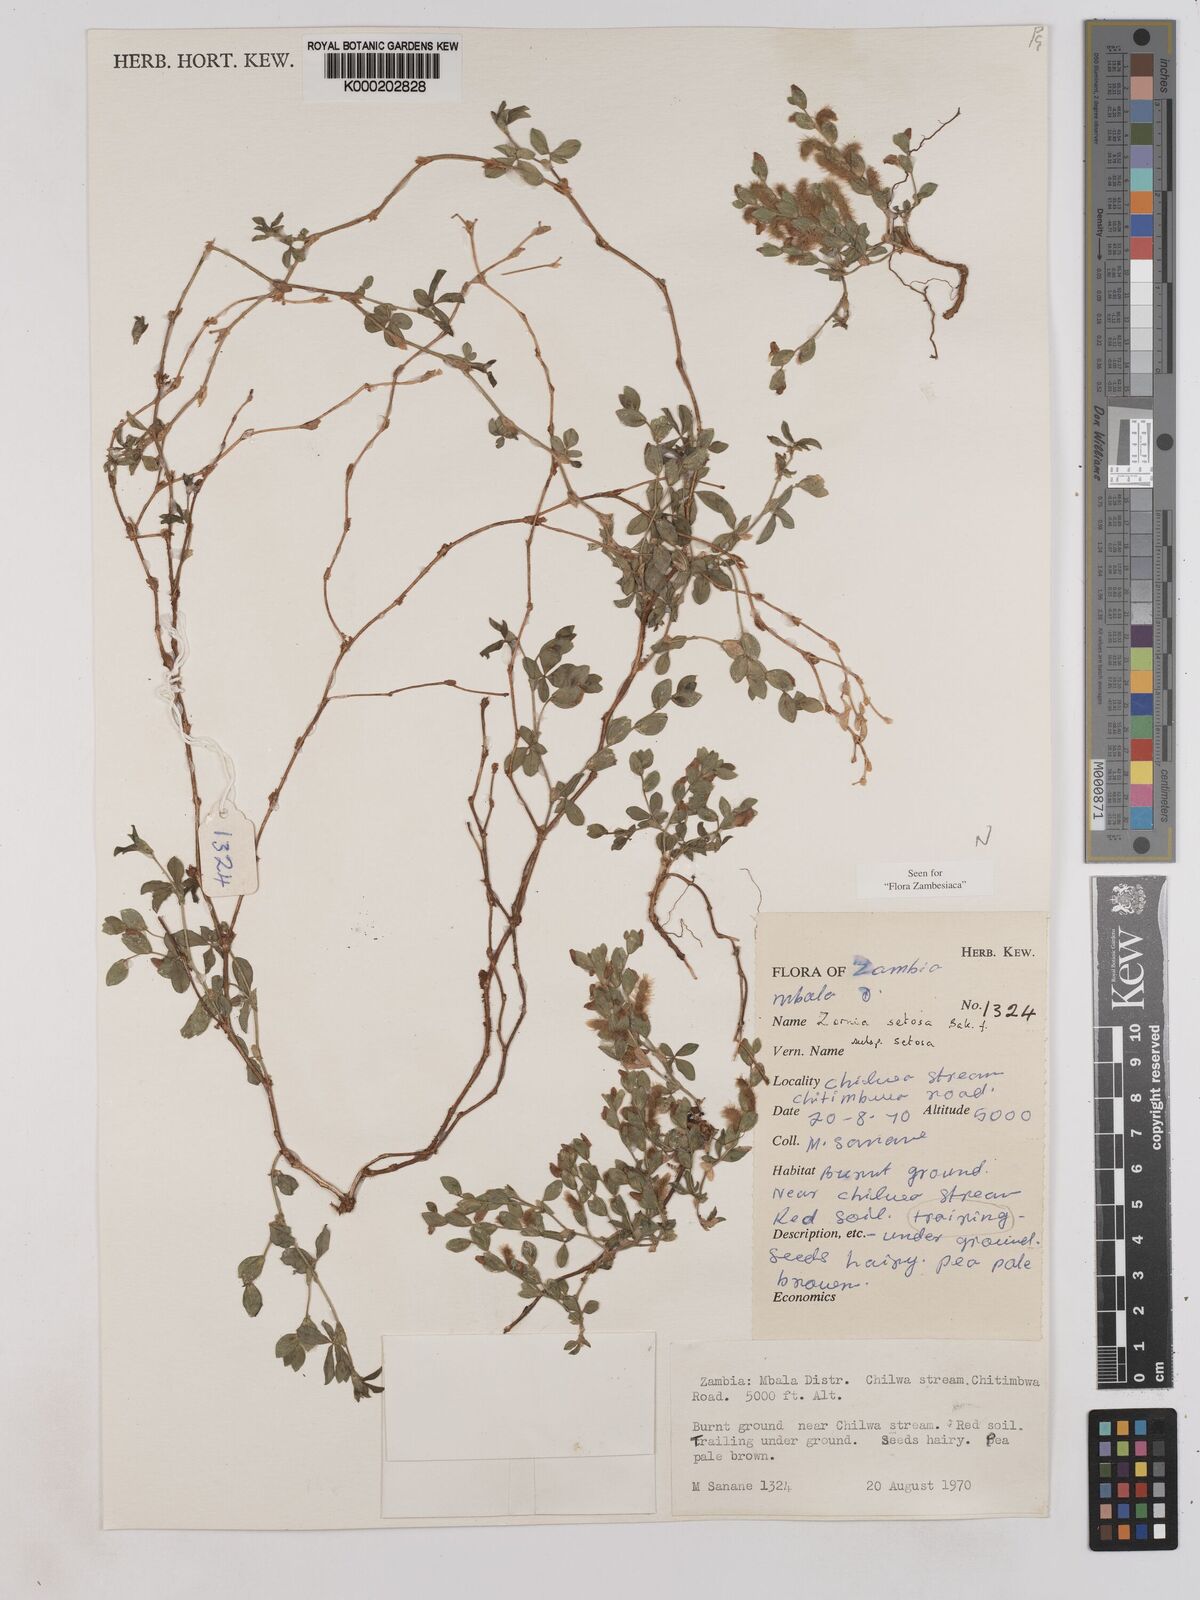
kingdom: Plantae
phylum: Tracheophyta
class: Magnoliopsida
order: Fabales
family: Fabaceae
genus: Zornia
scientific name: Zornia setosa
